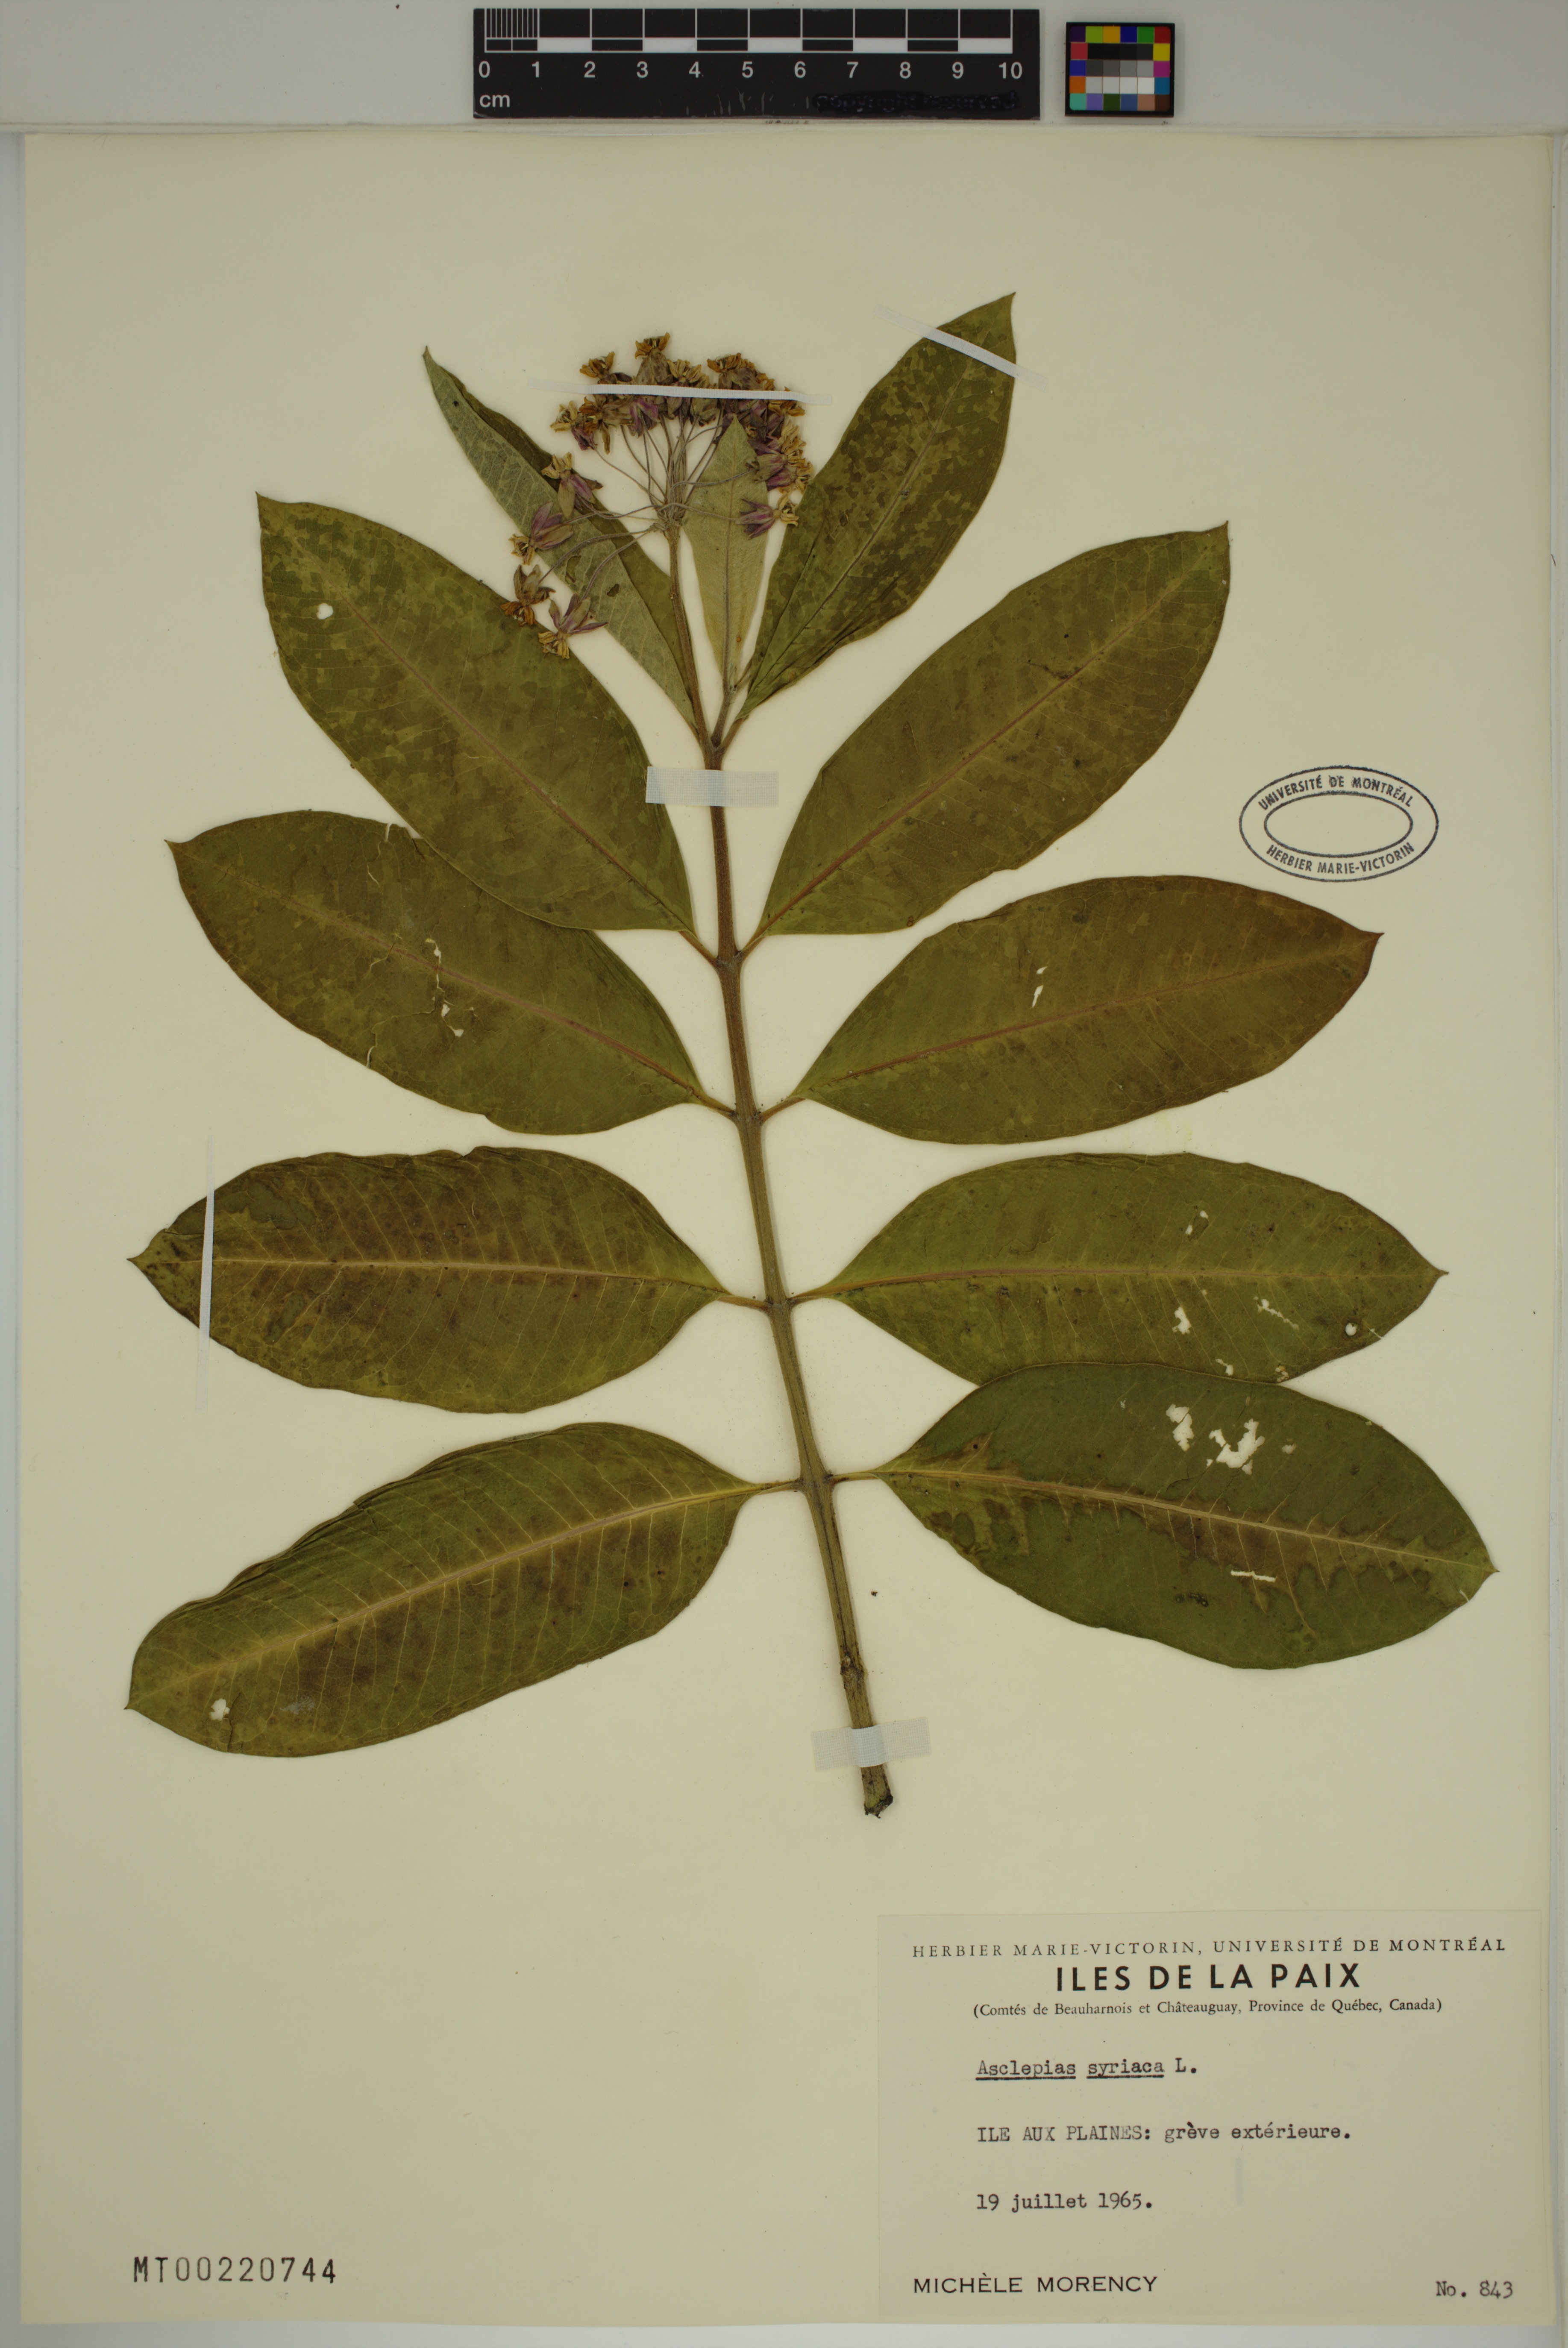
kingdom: Plantae
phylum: Tracheophyta
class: Magnoliopsida
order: Gentianales
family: Apocynaceae
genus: Asclepias
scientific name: Asclepias syriaca
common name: Common milkweed
